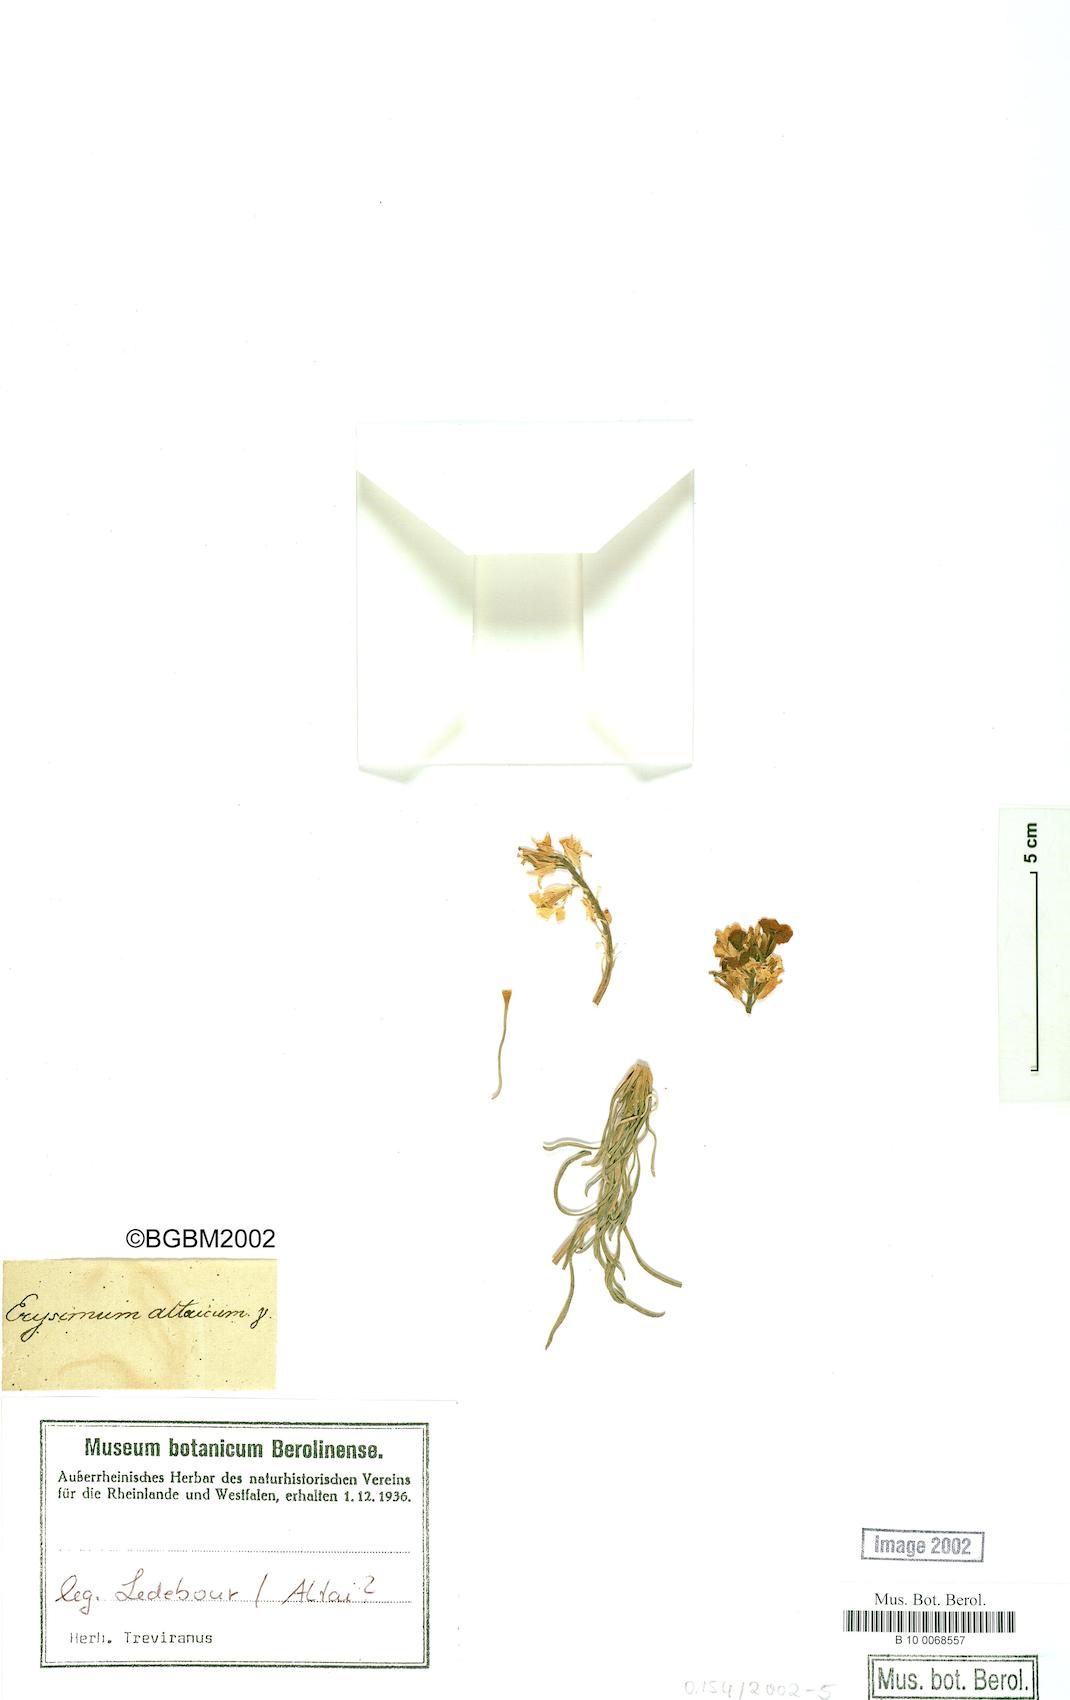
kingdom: Plantae
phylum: Tracheophyta
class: Magnoliopsida
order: Brassicales
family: Brassicaceae
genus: Erysimum
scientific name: Erysimum altaicum
